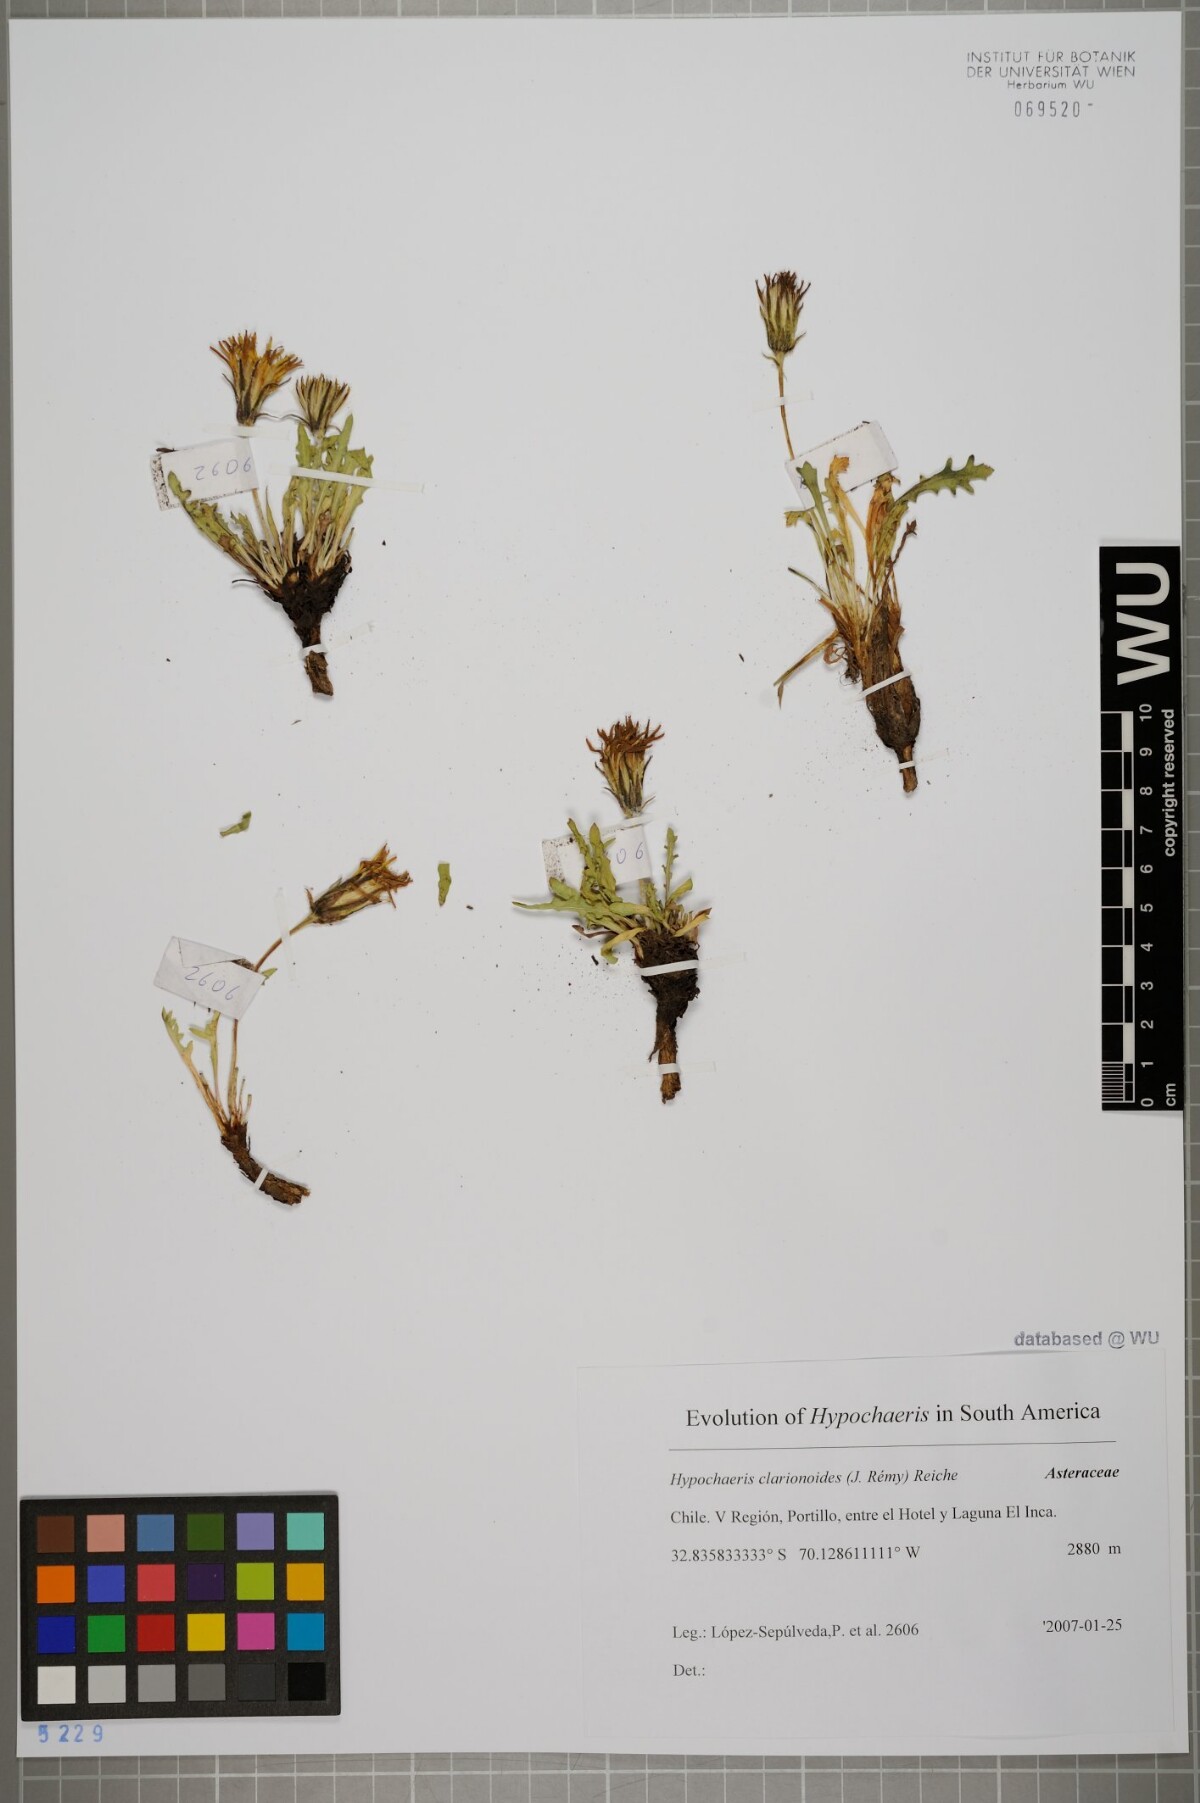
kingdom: Plantae
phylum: Tracheophyta
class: Magnoliopsida
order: Asterales
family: Asteraceae
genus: Hypochaeris
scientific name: Hypochaeris clarionoides
